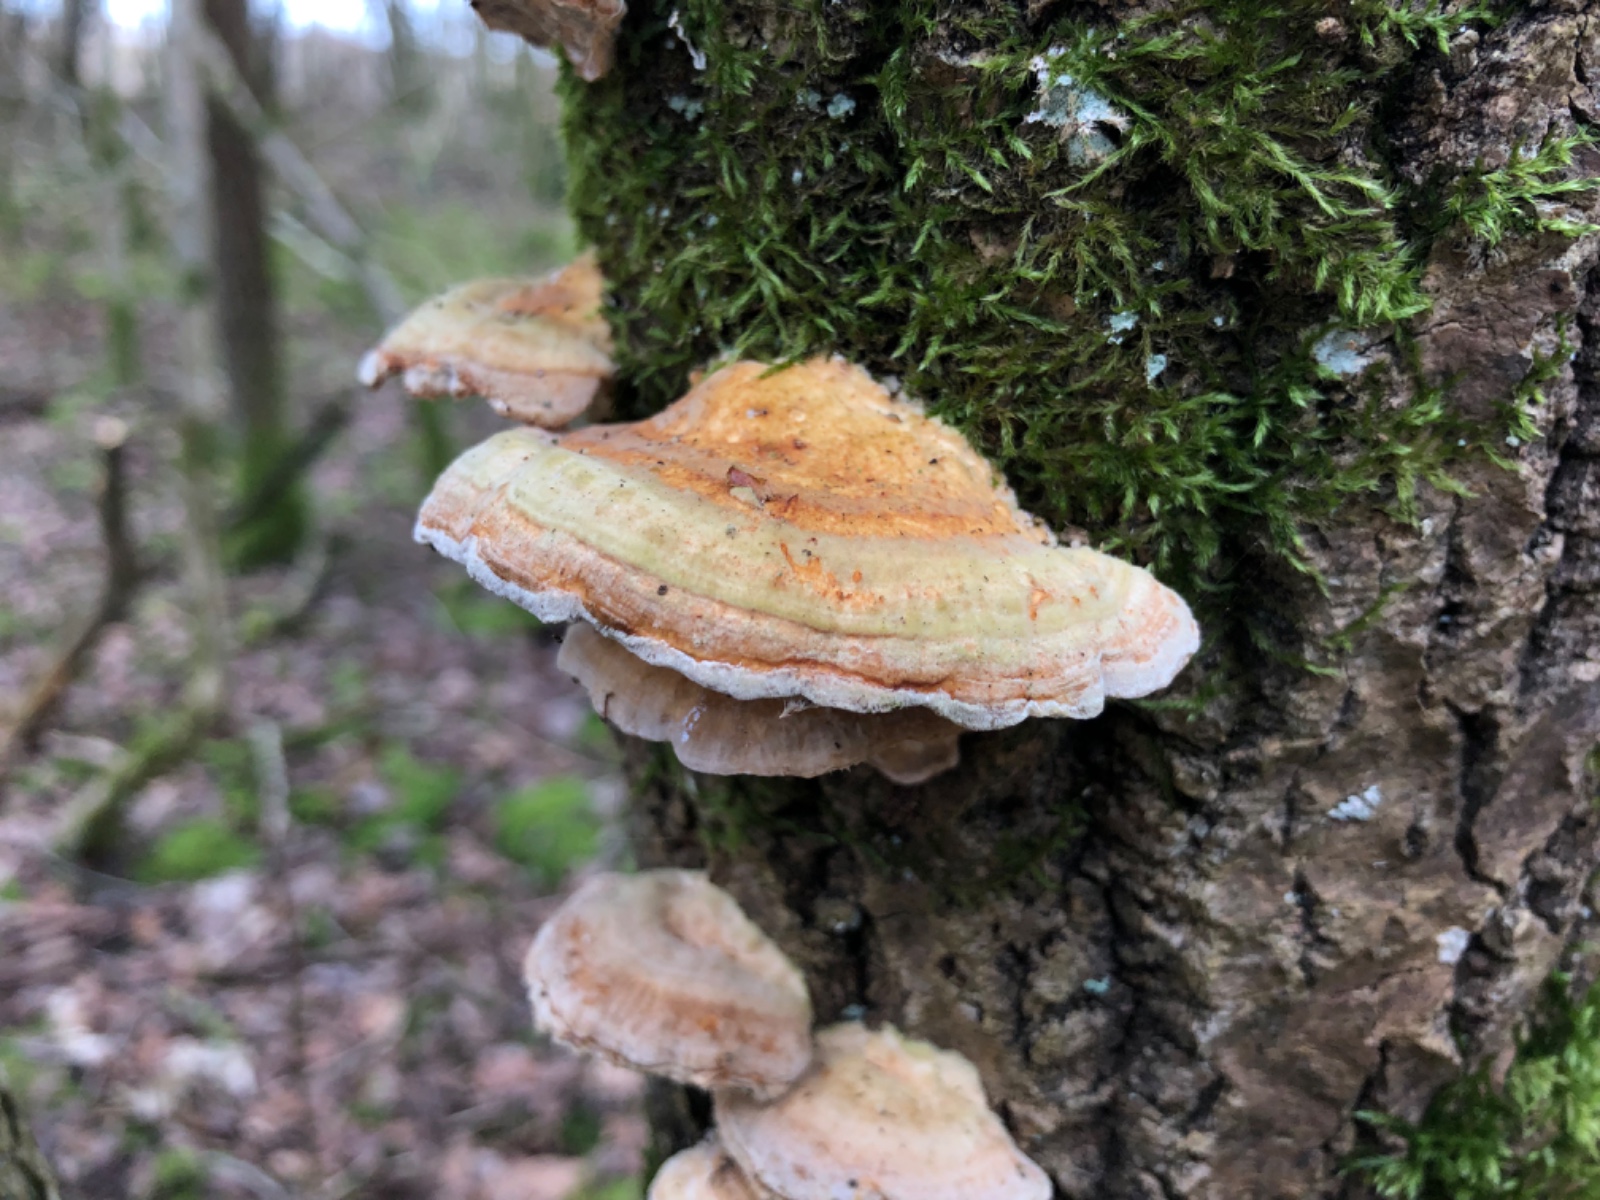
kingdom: Fungi
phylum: Basidiomycota
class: Agaricomycetes
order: Polyporales
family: Polyporaceae
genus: Trametes
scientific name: Trametes ochracea
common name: bæltet læderporesvamp
